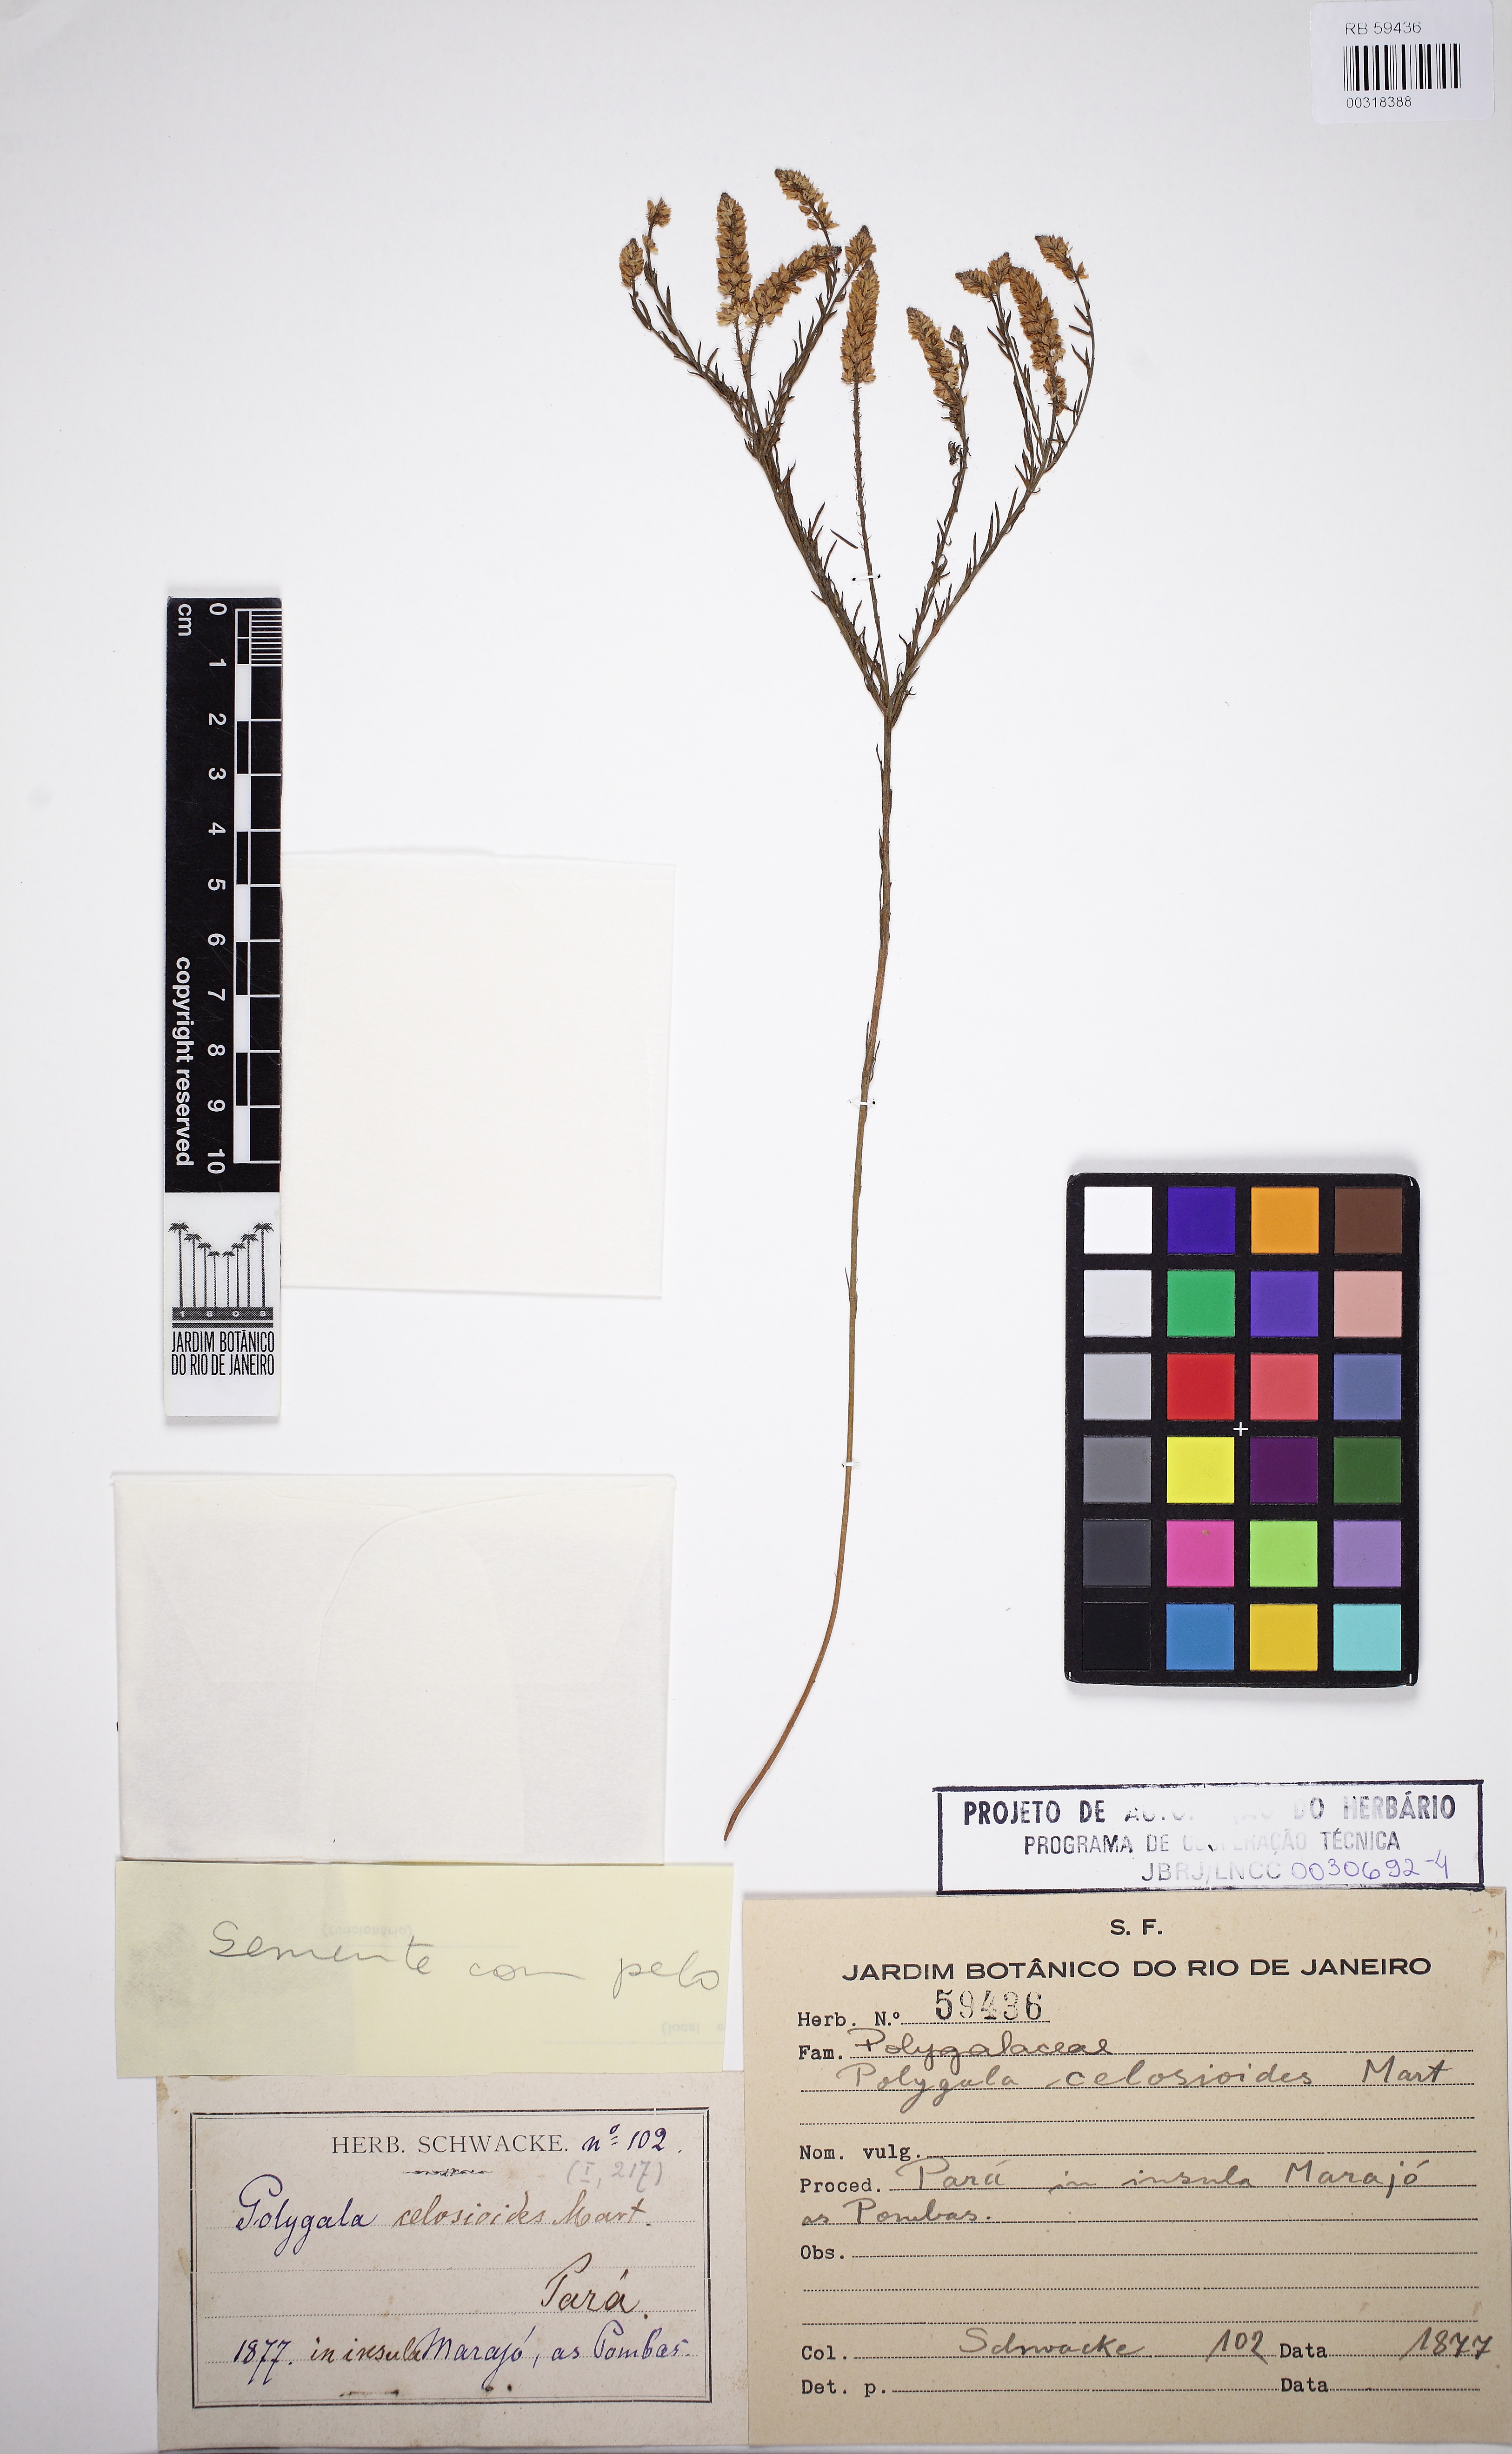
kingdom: Plantae
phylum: Tracheophyta
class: Magnoliopsida
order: Fabales
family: Polygalaceae
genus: Polygala
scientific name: Polygala celosioides
